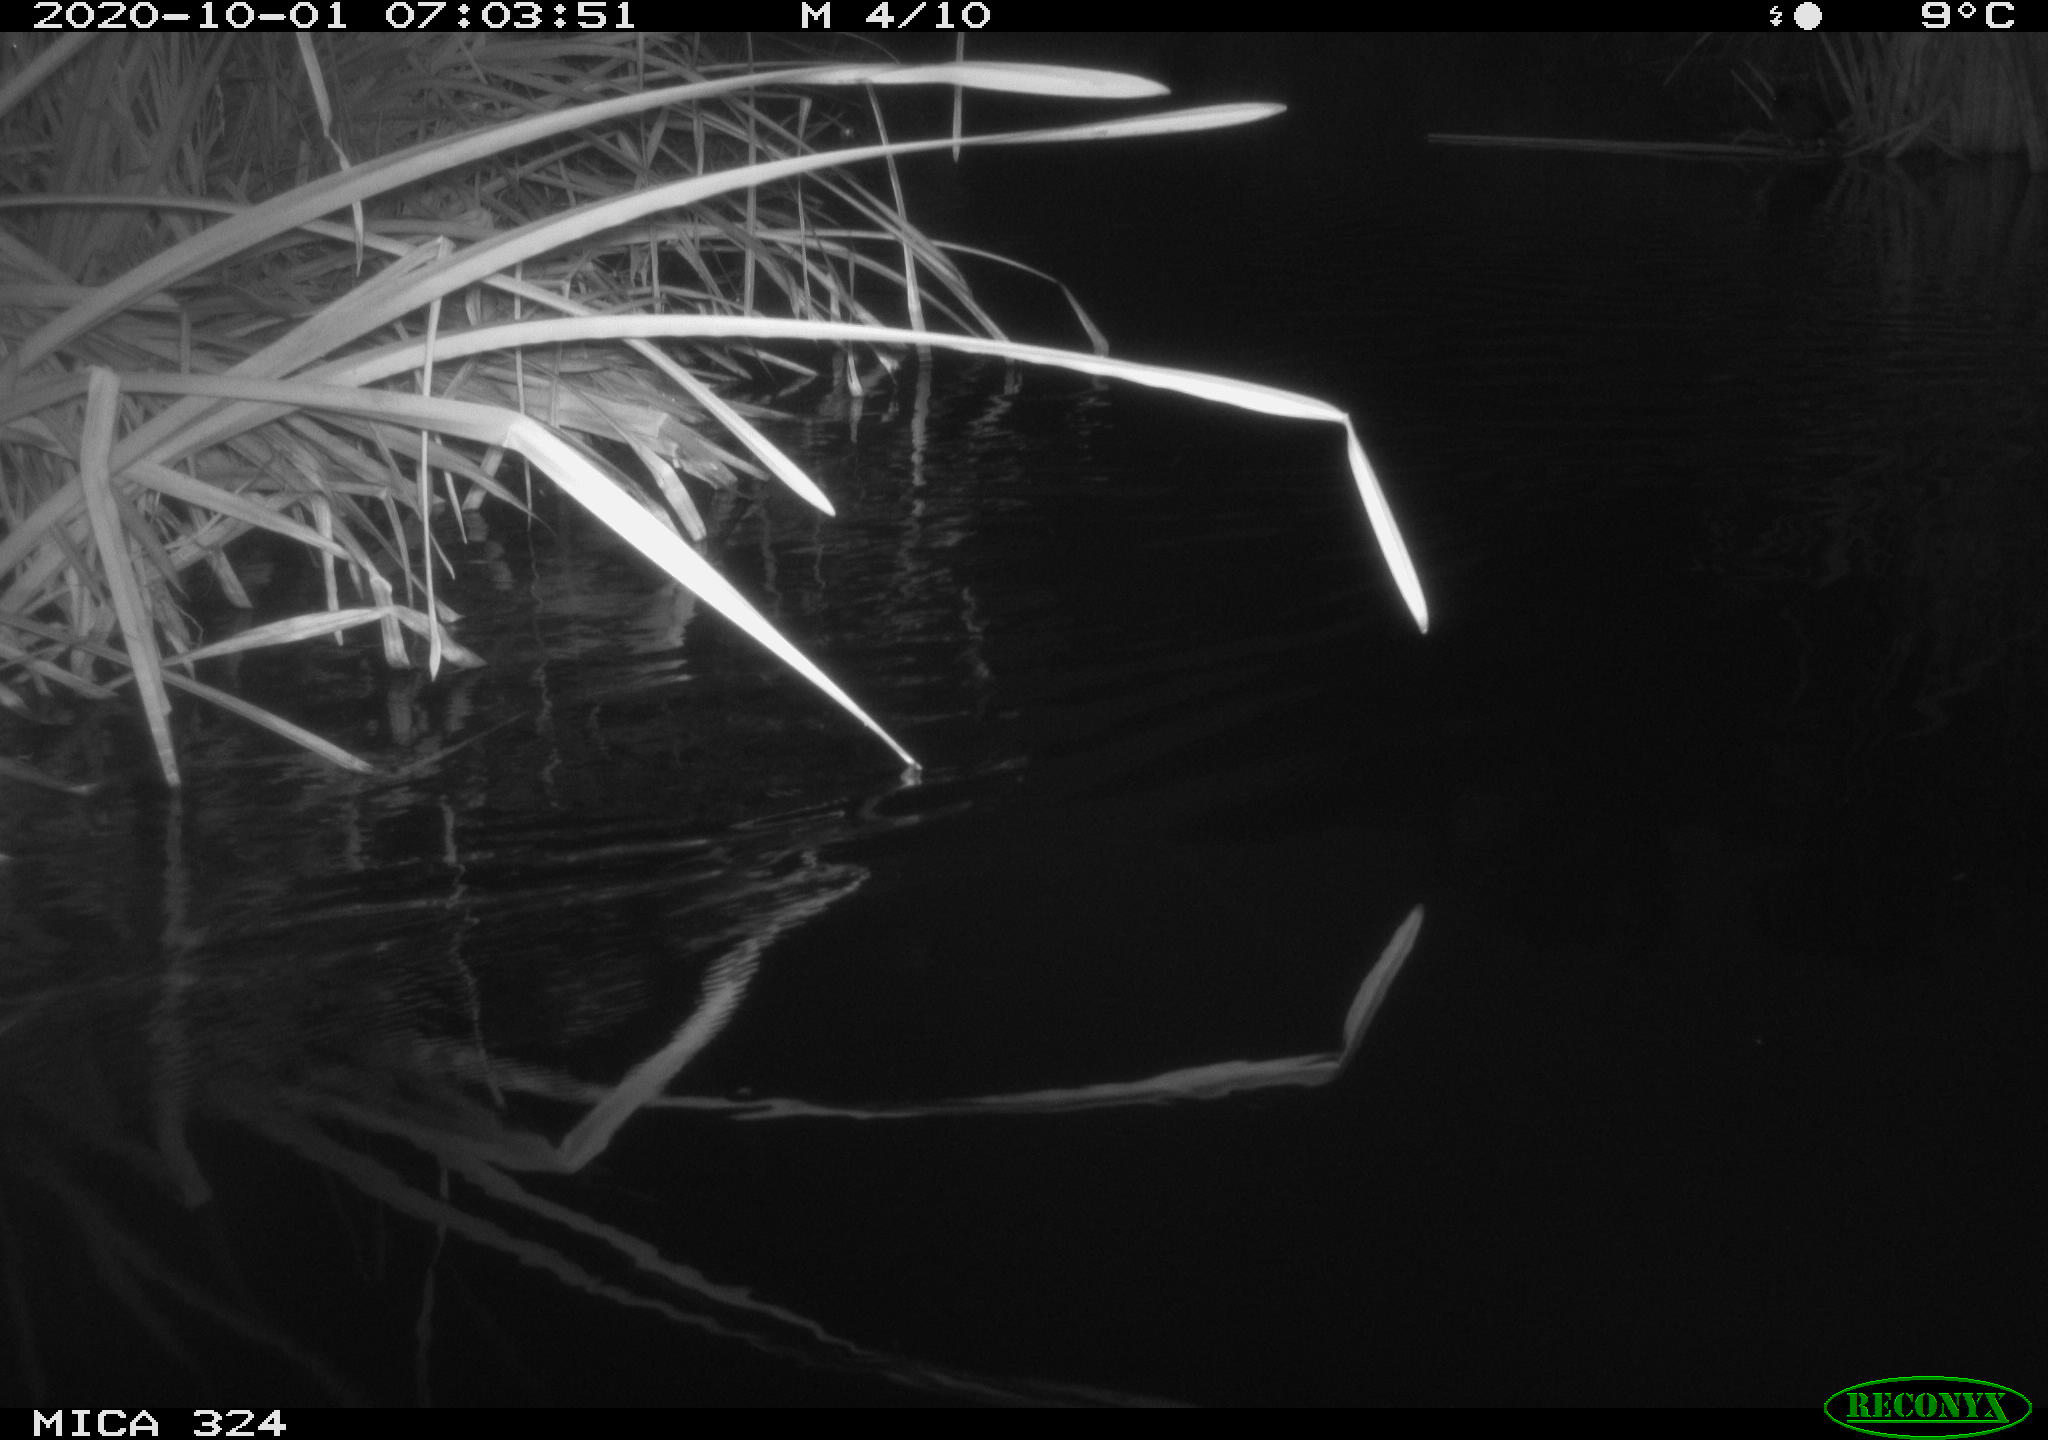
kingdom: Animalia
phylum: Chordata
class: Aves
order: Gruiformes
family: Rallidae
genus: Gallinula
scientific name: Gallinula chloropus
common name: Common moorhen
